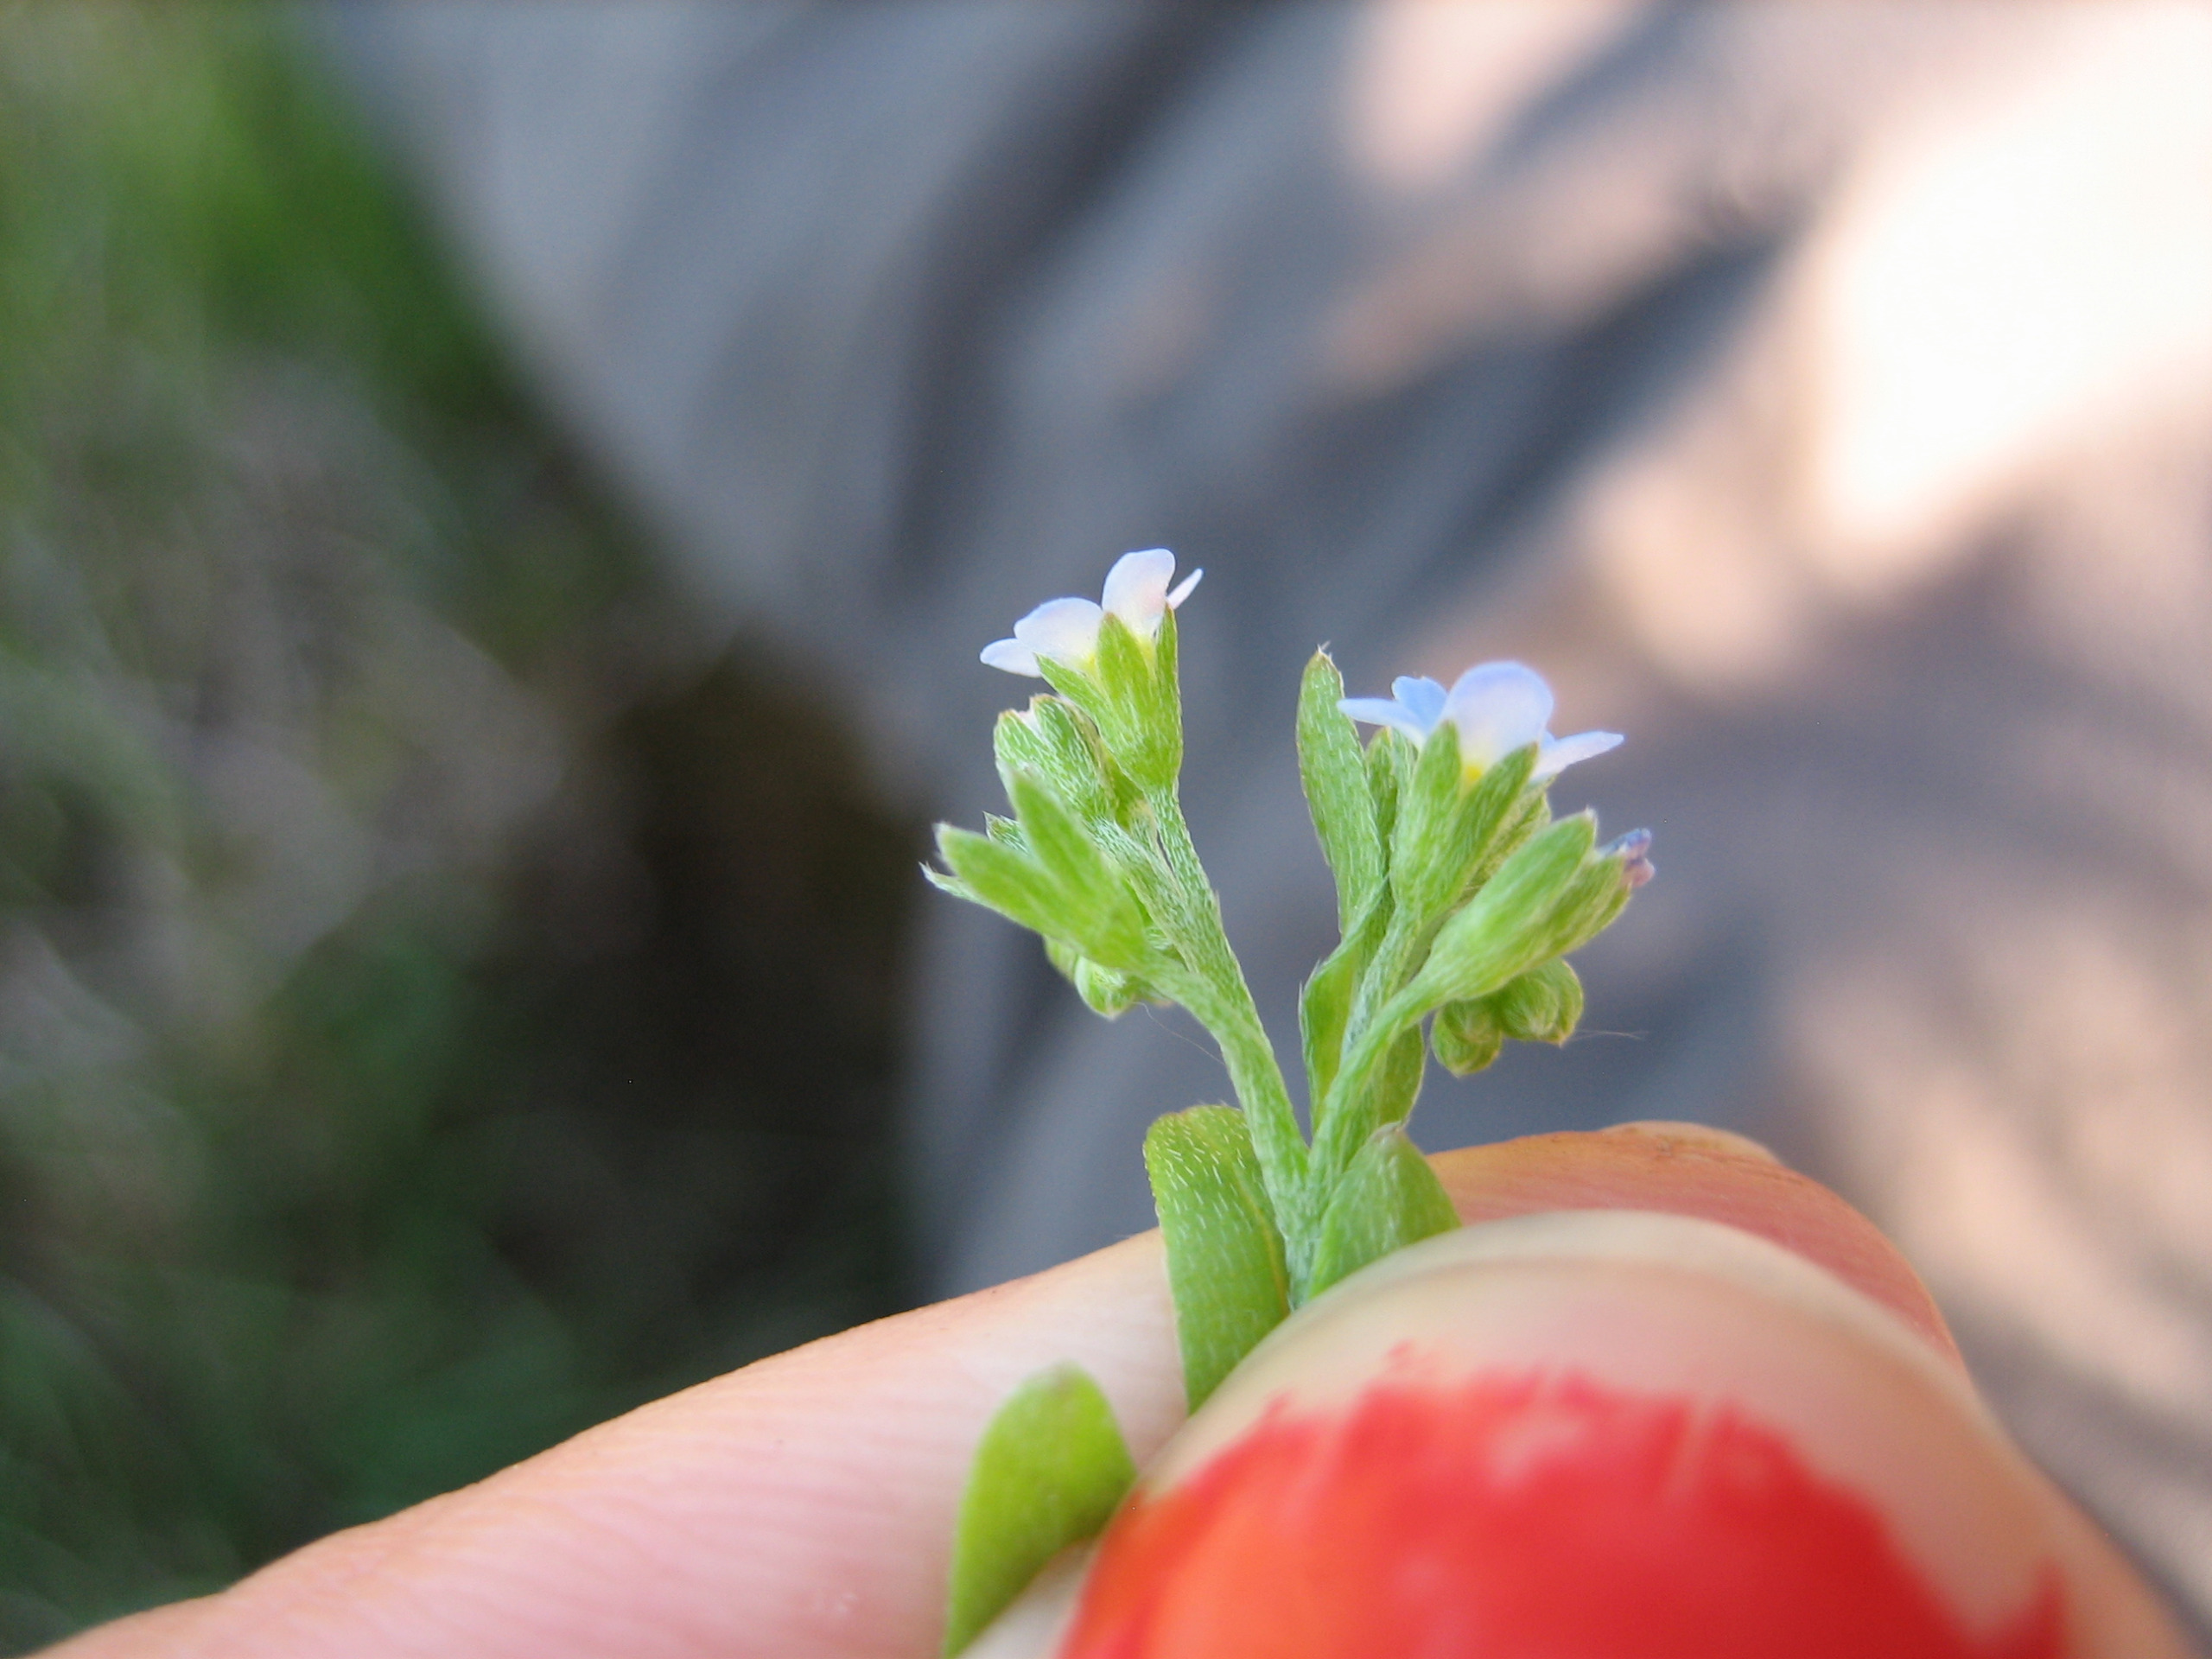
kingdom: Plantae
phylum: Tracheophyta
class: Magnoliopsida
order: Boraginales
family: Boraginaceae
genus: Myosotis
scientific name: Myosotis laxa
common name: Sump-forglemmigej
